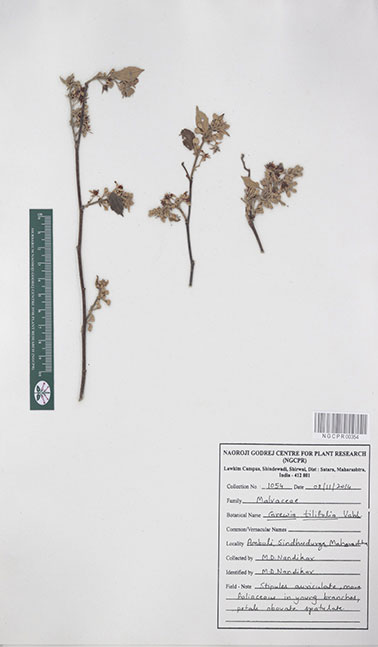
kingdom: Plantae
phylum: Tracheophyta
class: Magnoliopsida
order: Malvales
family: Malvaceae
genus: Grewia
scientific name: Grewia tiliifolia
